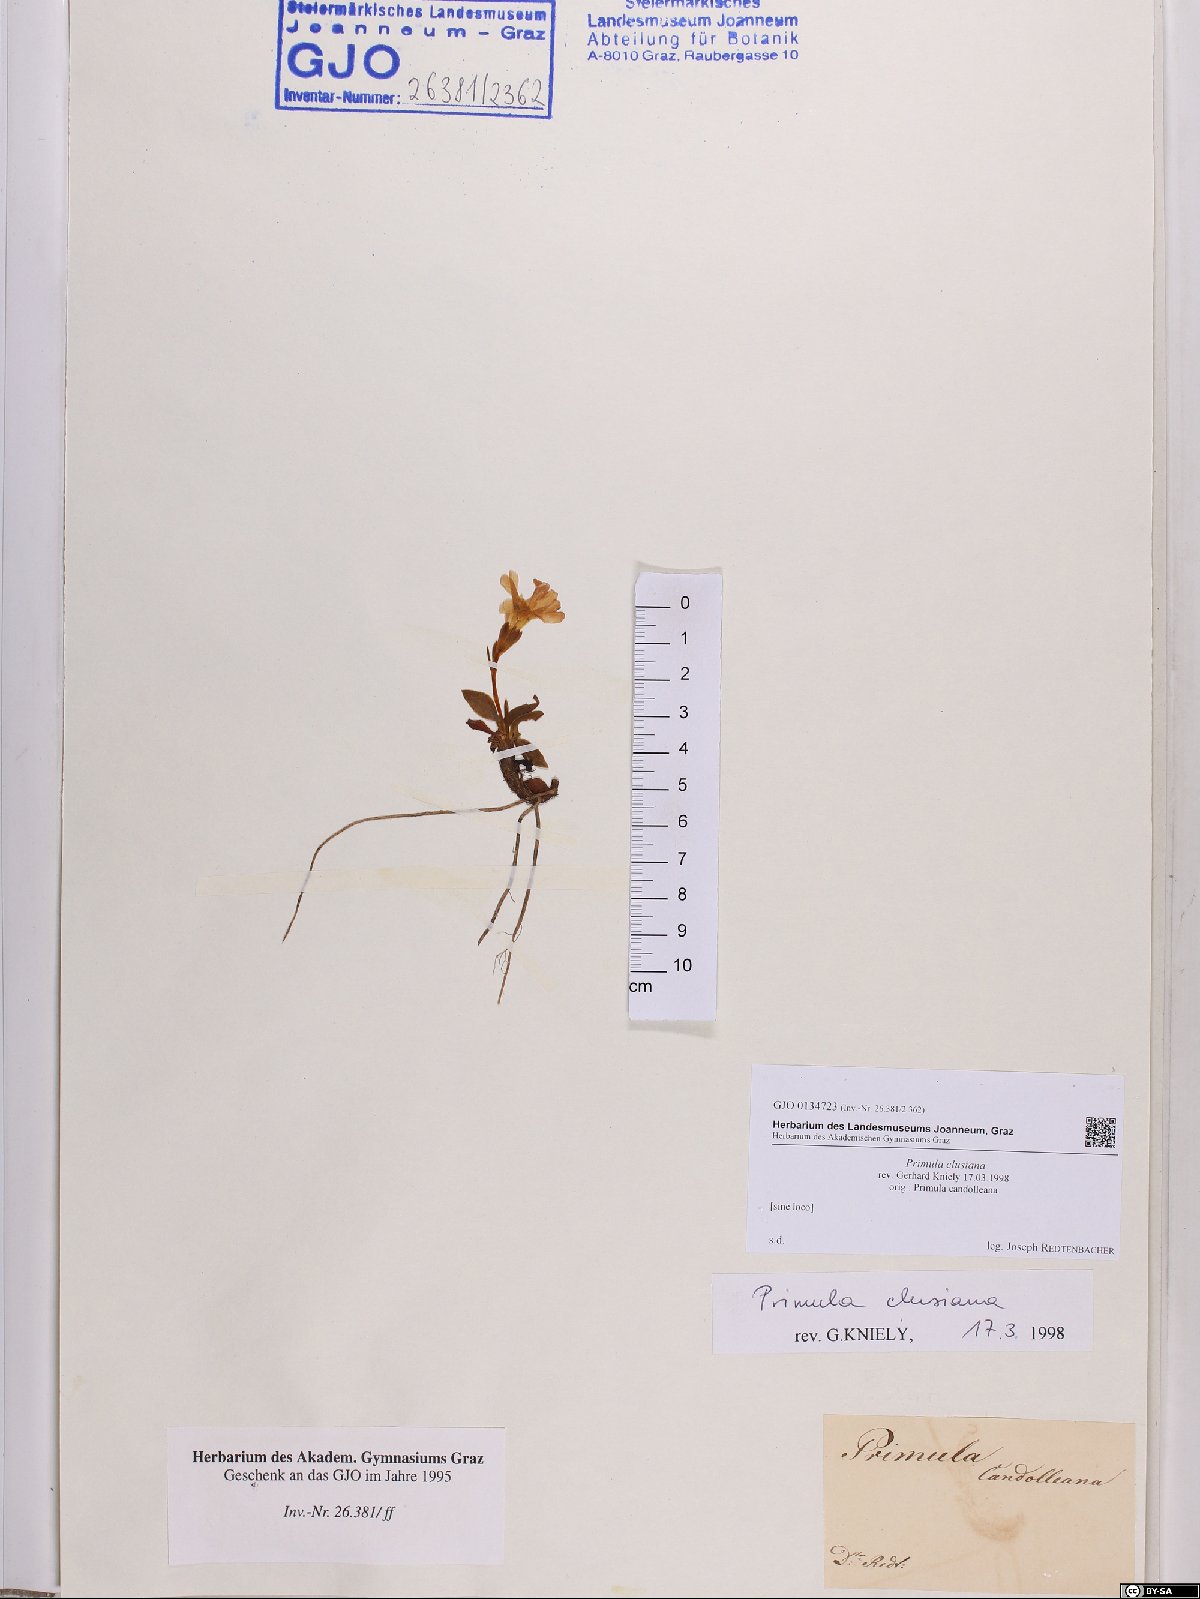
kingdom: Plantae
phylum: Tracheophyta
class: Magnoliopsida
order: Ericales
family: Primulaceae
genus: Primula
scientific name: Primula clusiana
